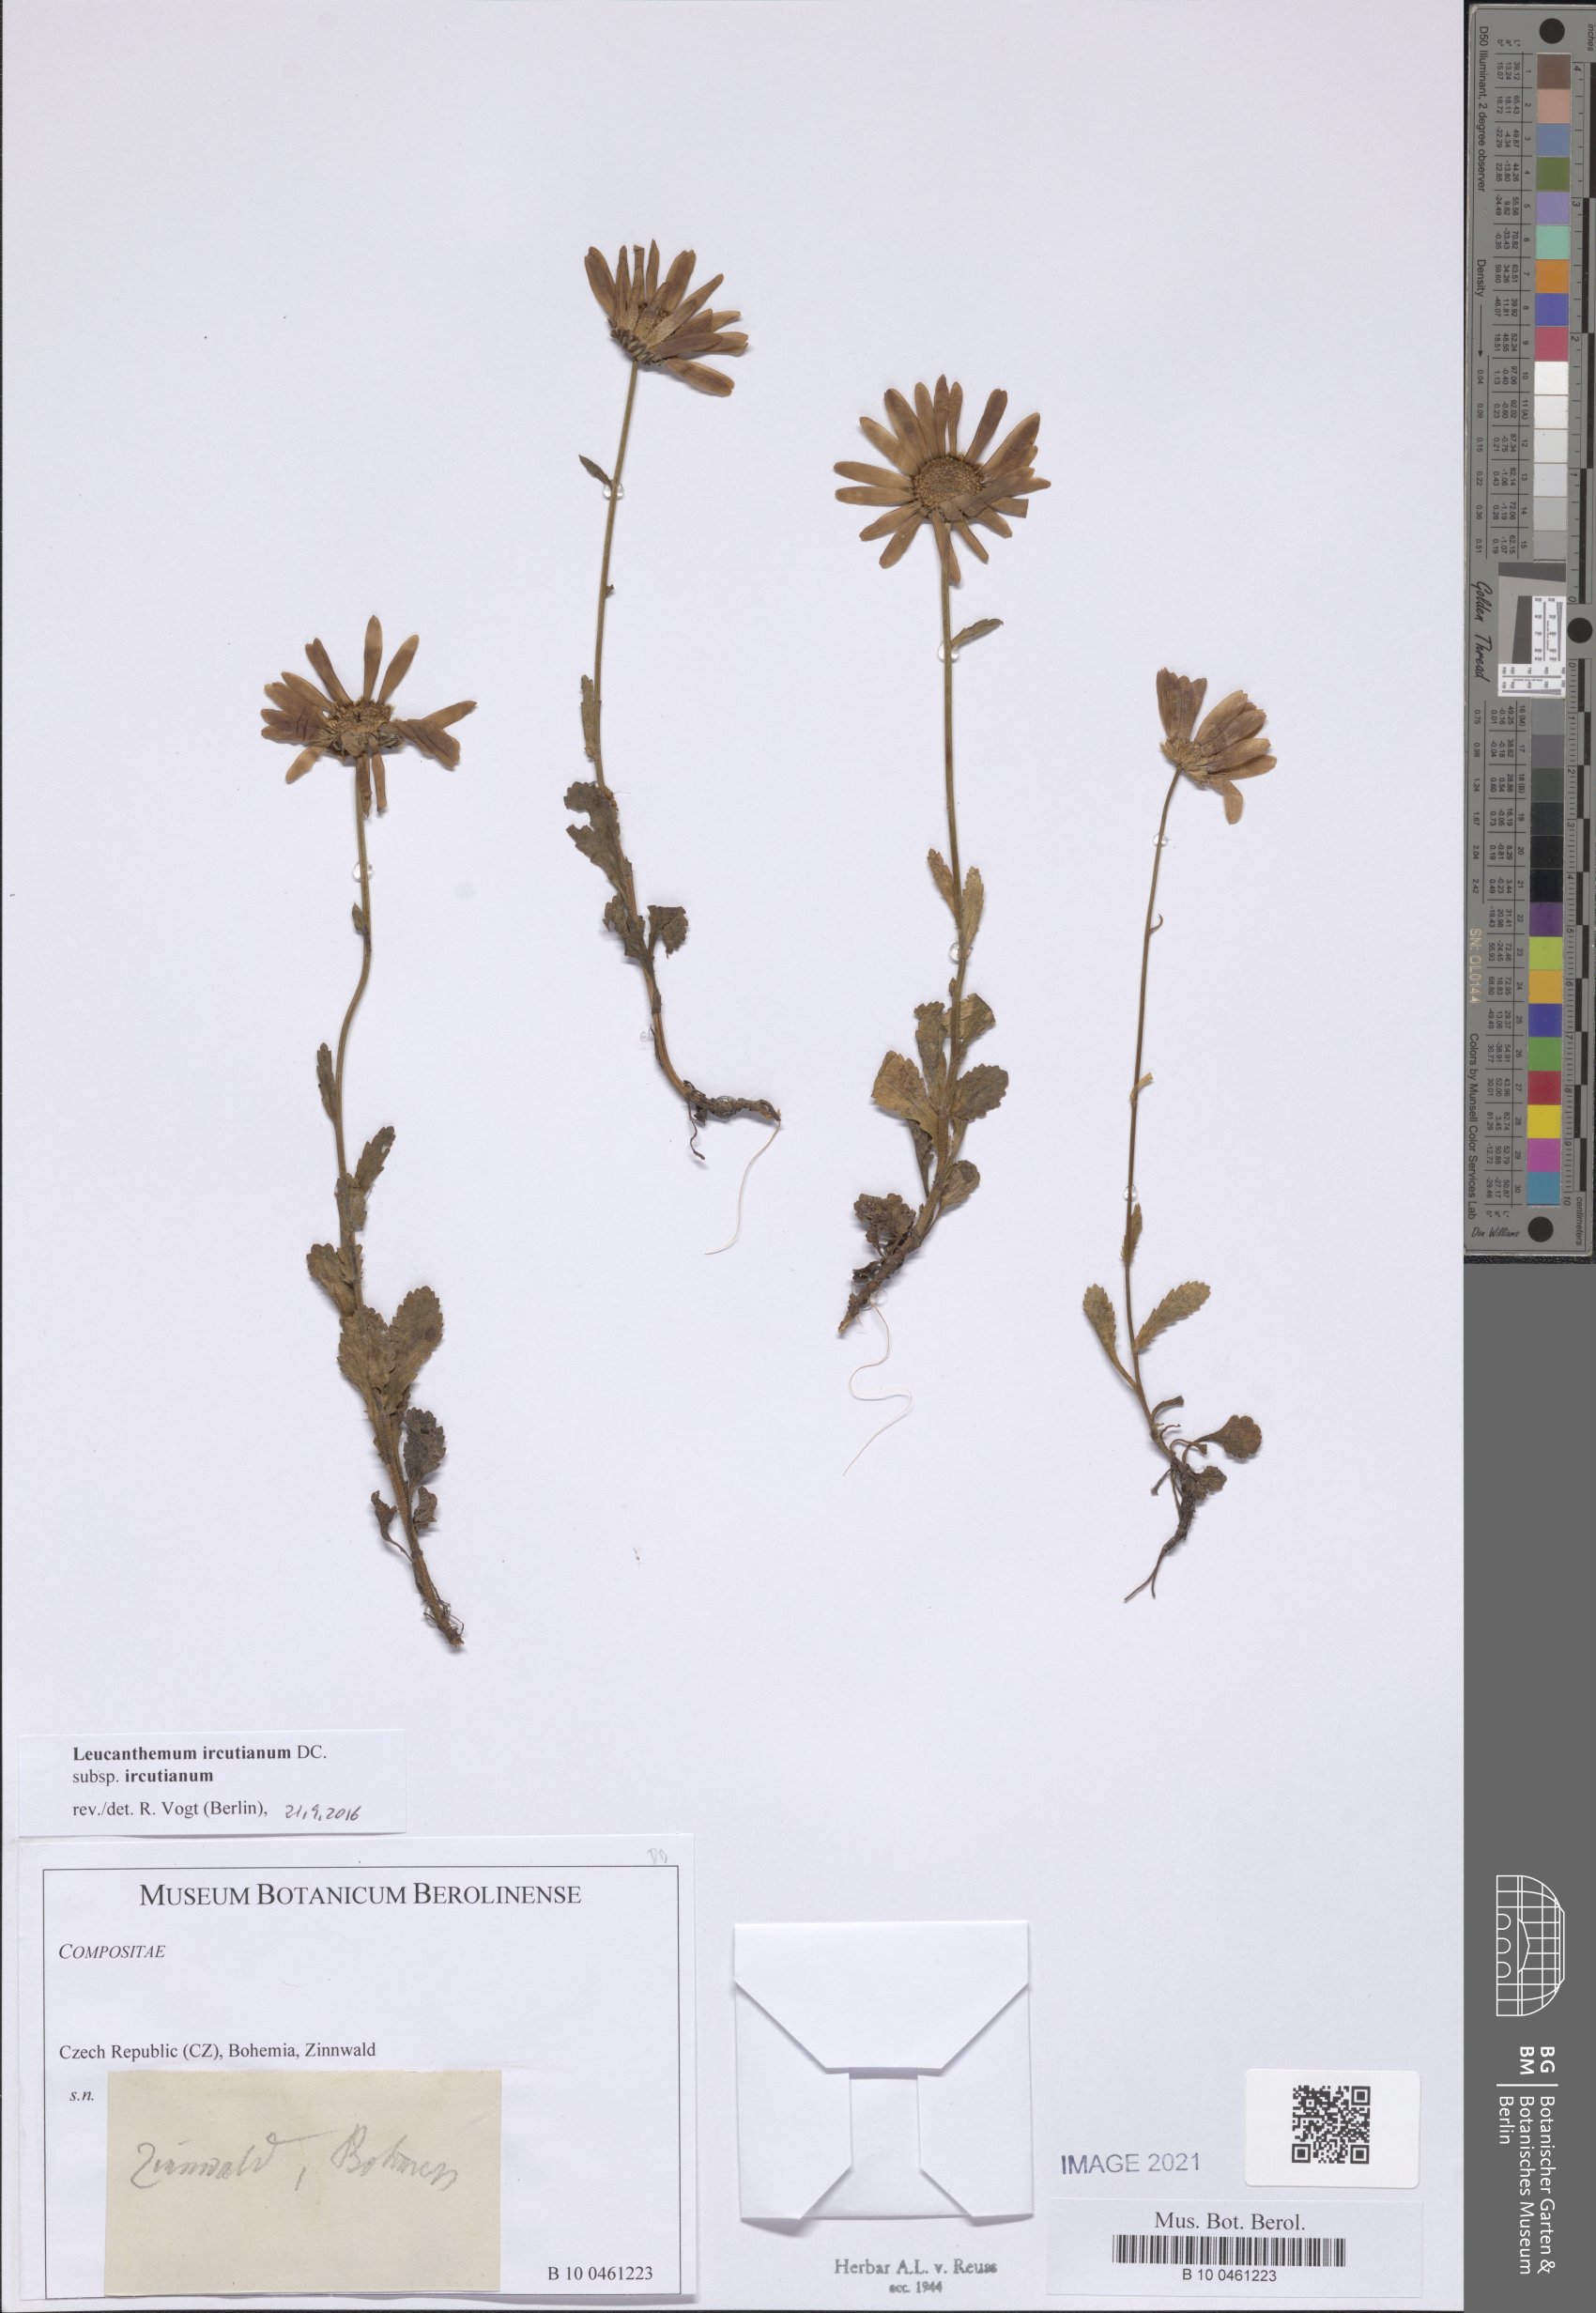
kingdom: Plantae
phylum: Tracheophyta
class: Magnoliopsida
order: Asterales
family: Asteraceae
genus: Leucanthemum
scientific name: Leucanthemum ircutianum
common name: Daisy
